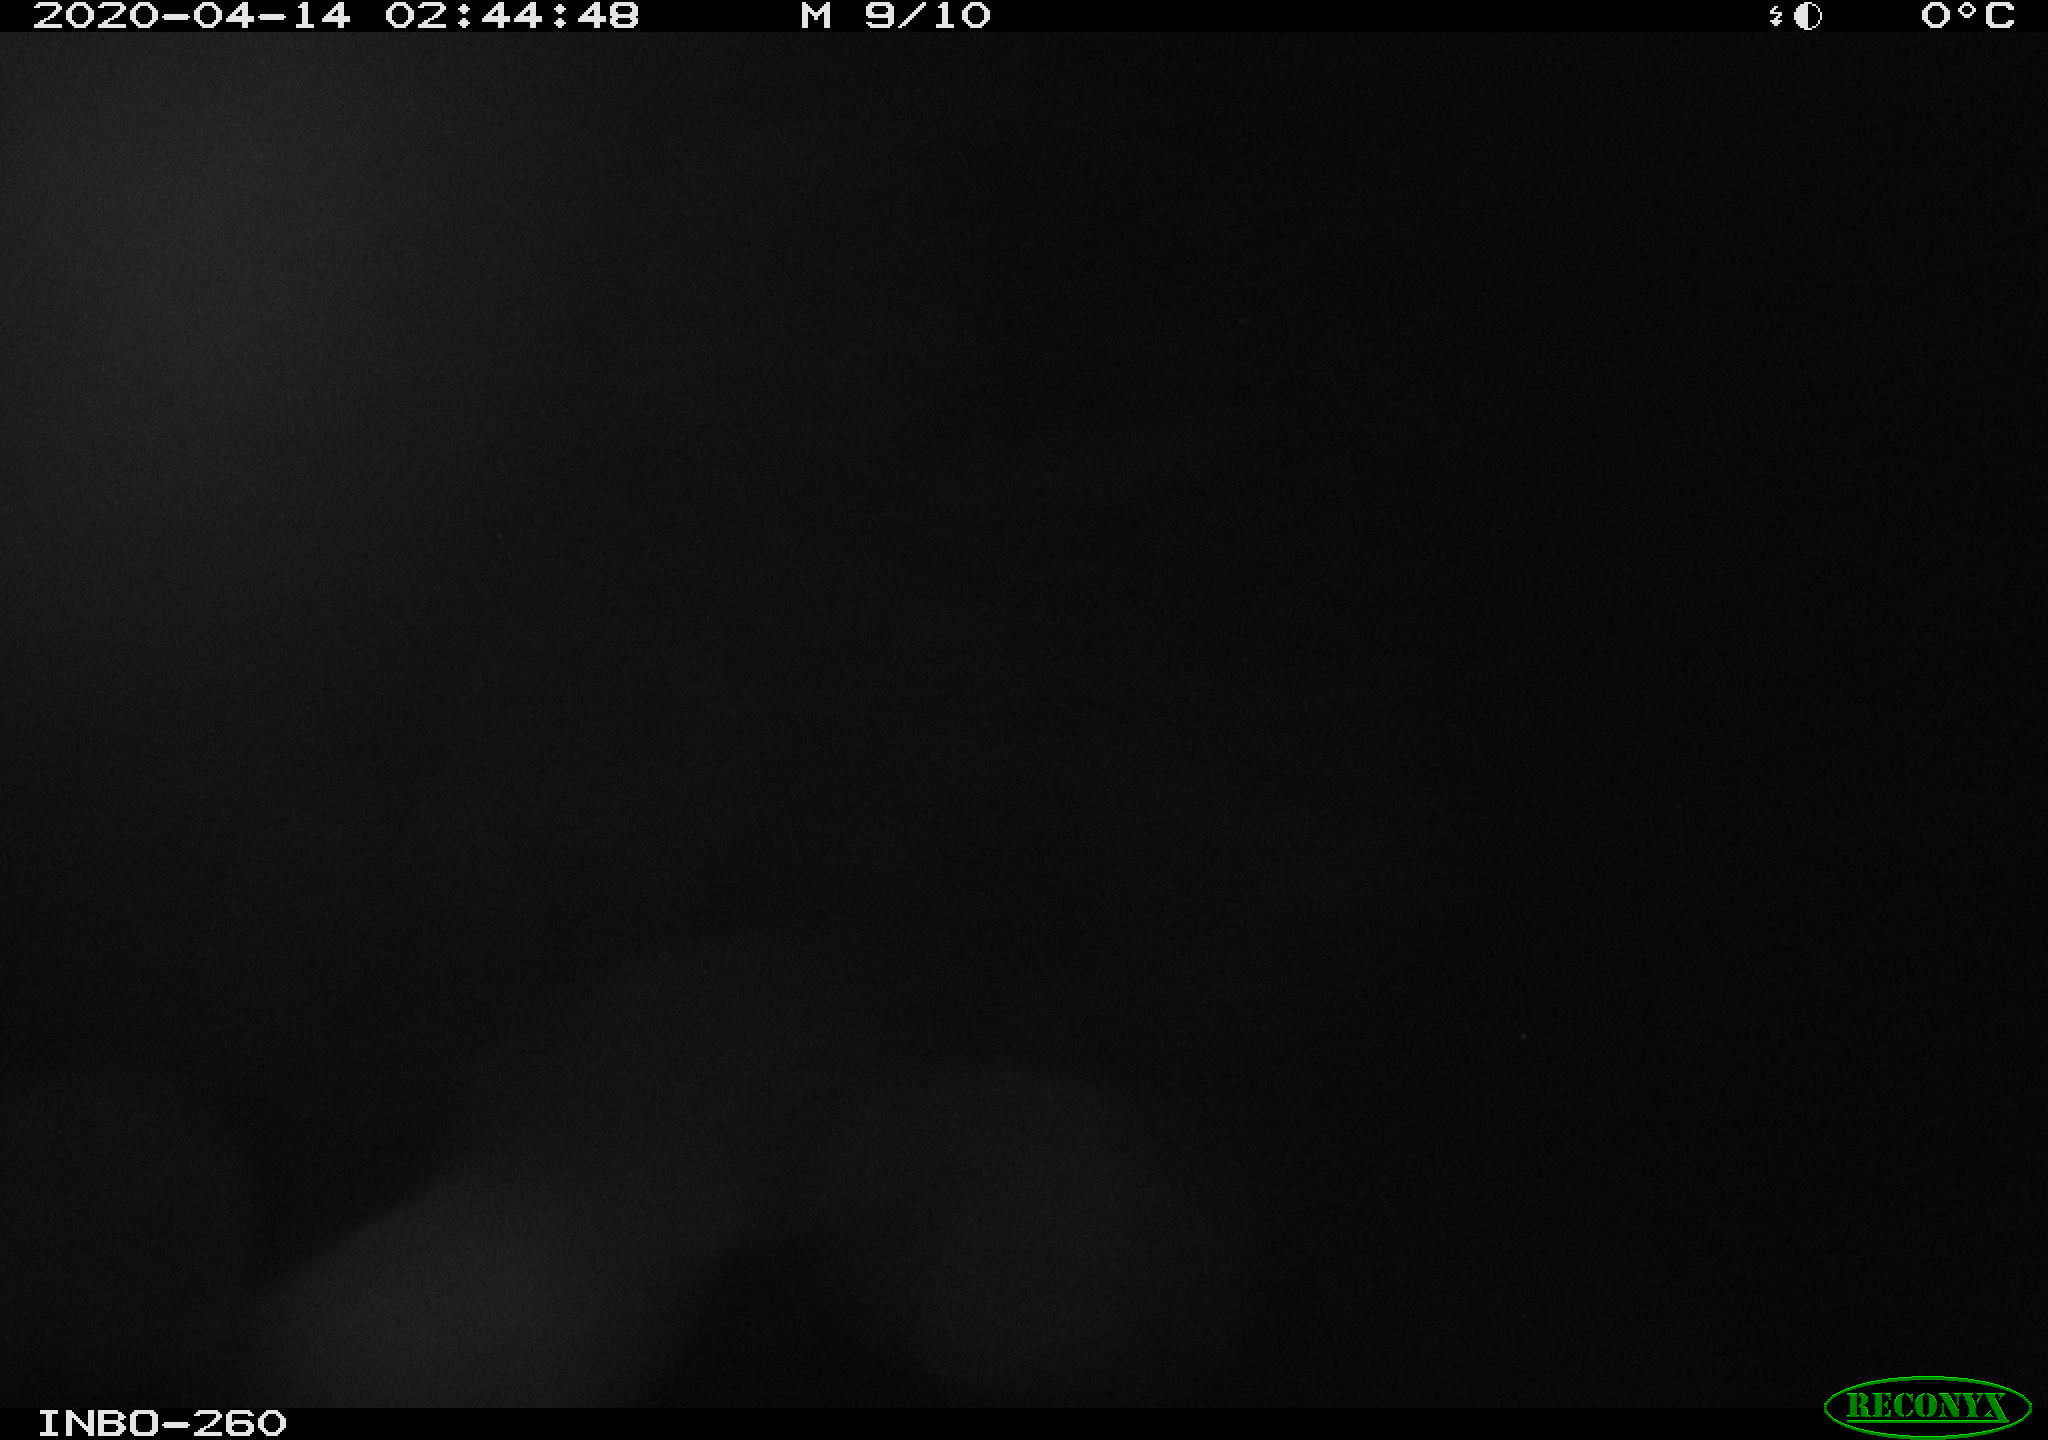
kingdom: Animalia
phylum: Chordata
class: Aves
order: Anseriformes
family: Anatidae
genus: Anas
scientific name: Anas platyrhynchos
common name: Mallard
